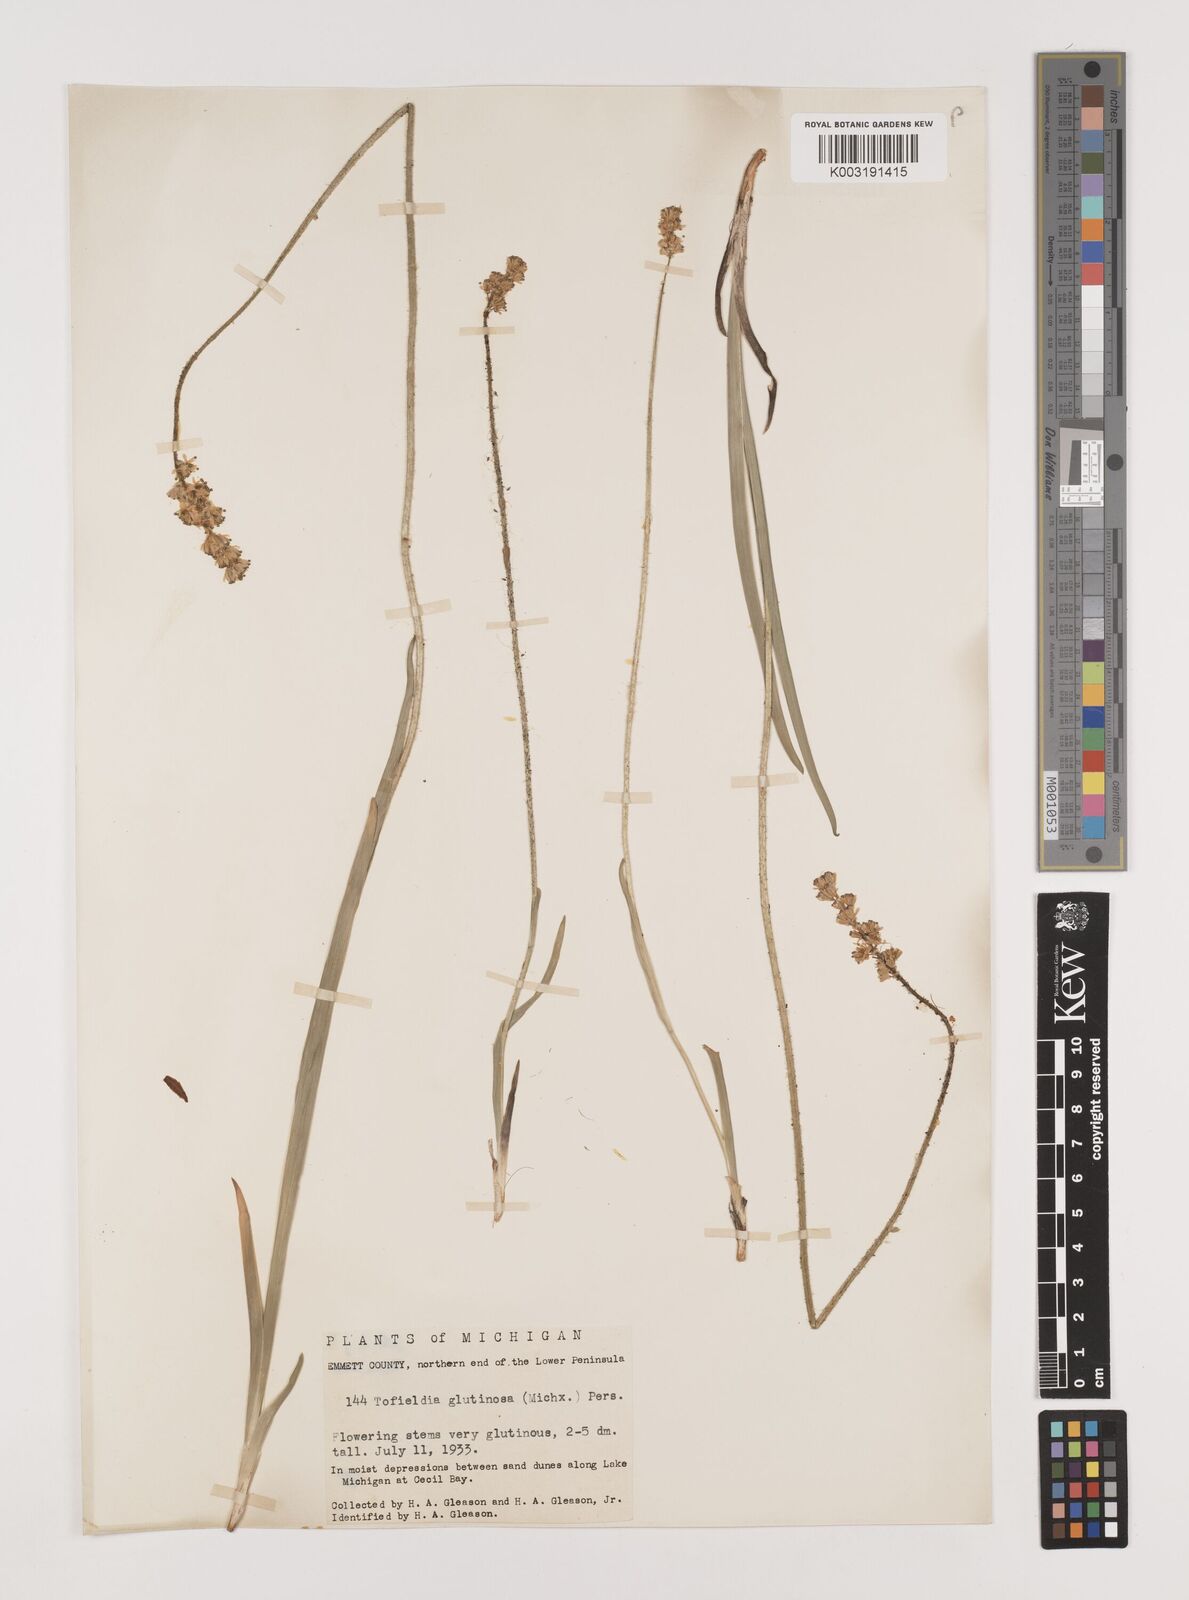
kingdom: Plantae
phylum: Tracheophyta
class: Liliopsida
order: Alismatales
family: Tofieldiaceae
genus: Triantha
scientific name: Triantha glutinosa
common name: Glutinous tofieldia
